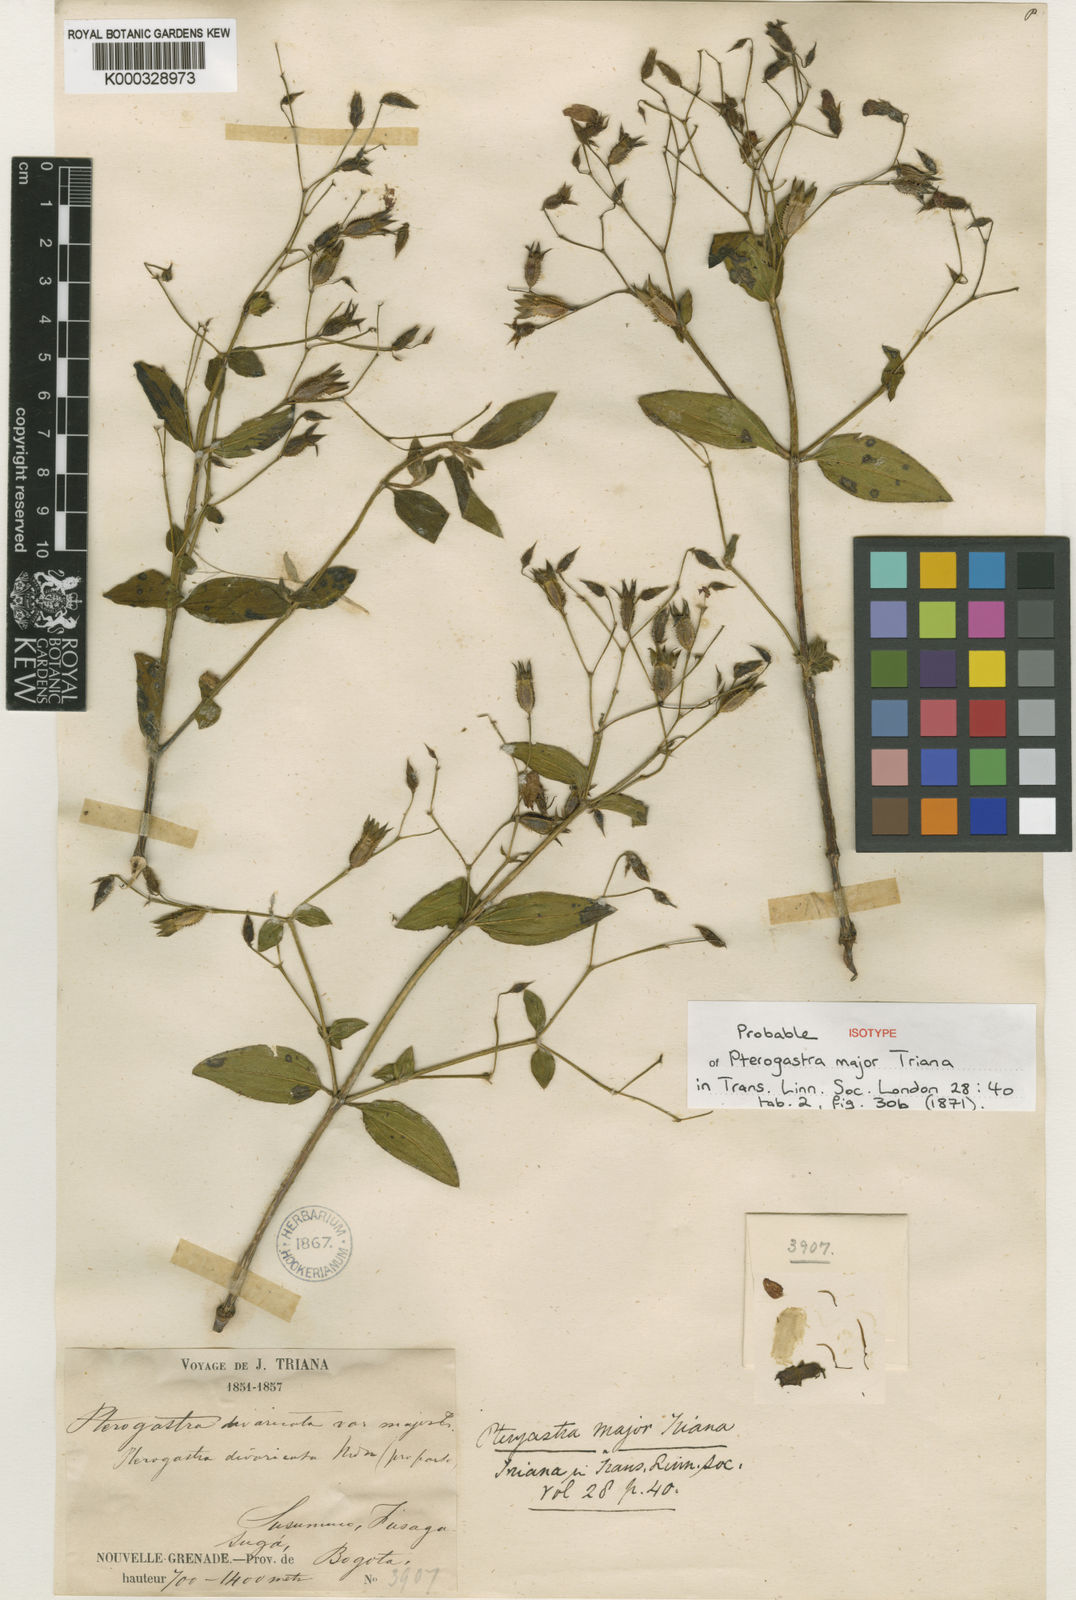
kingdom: Plantae
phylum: Tracheophyta
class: Magnoliopsida
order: Myrtales
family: Melastomataceae
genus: Pterogastra
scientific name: Pterogastra divaricata
